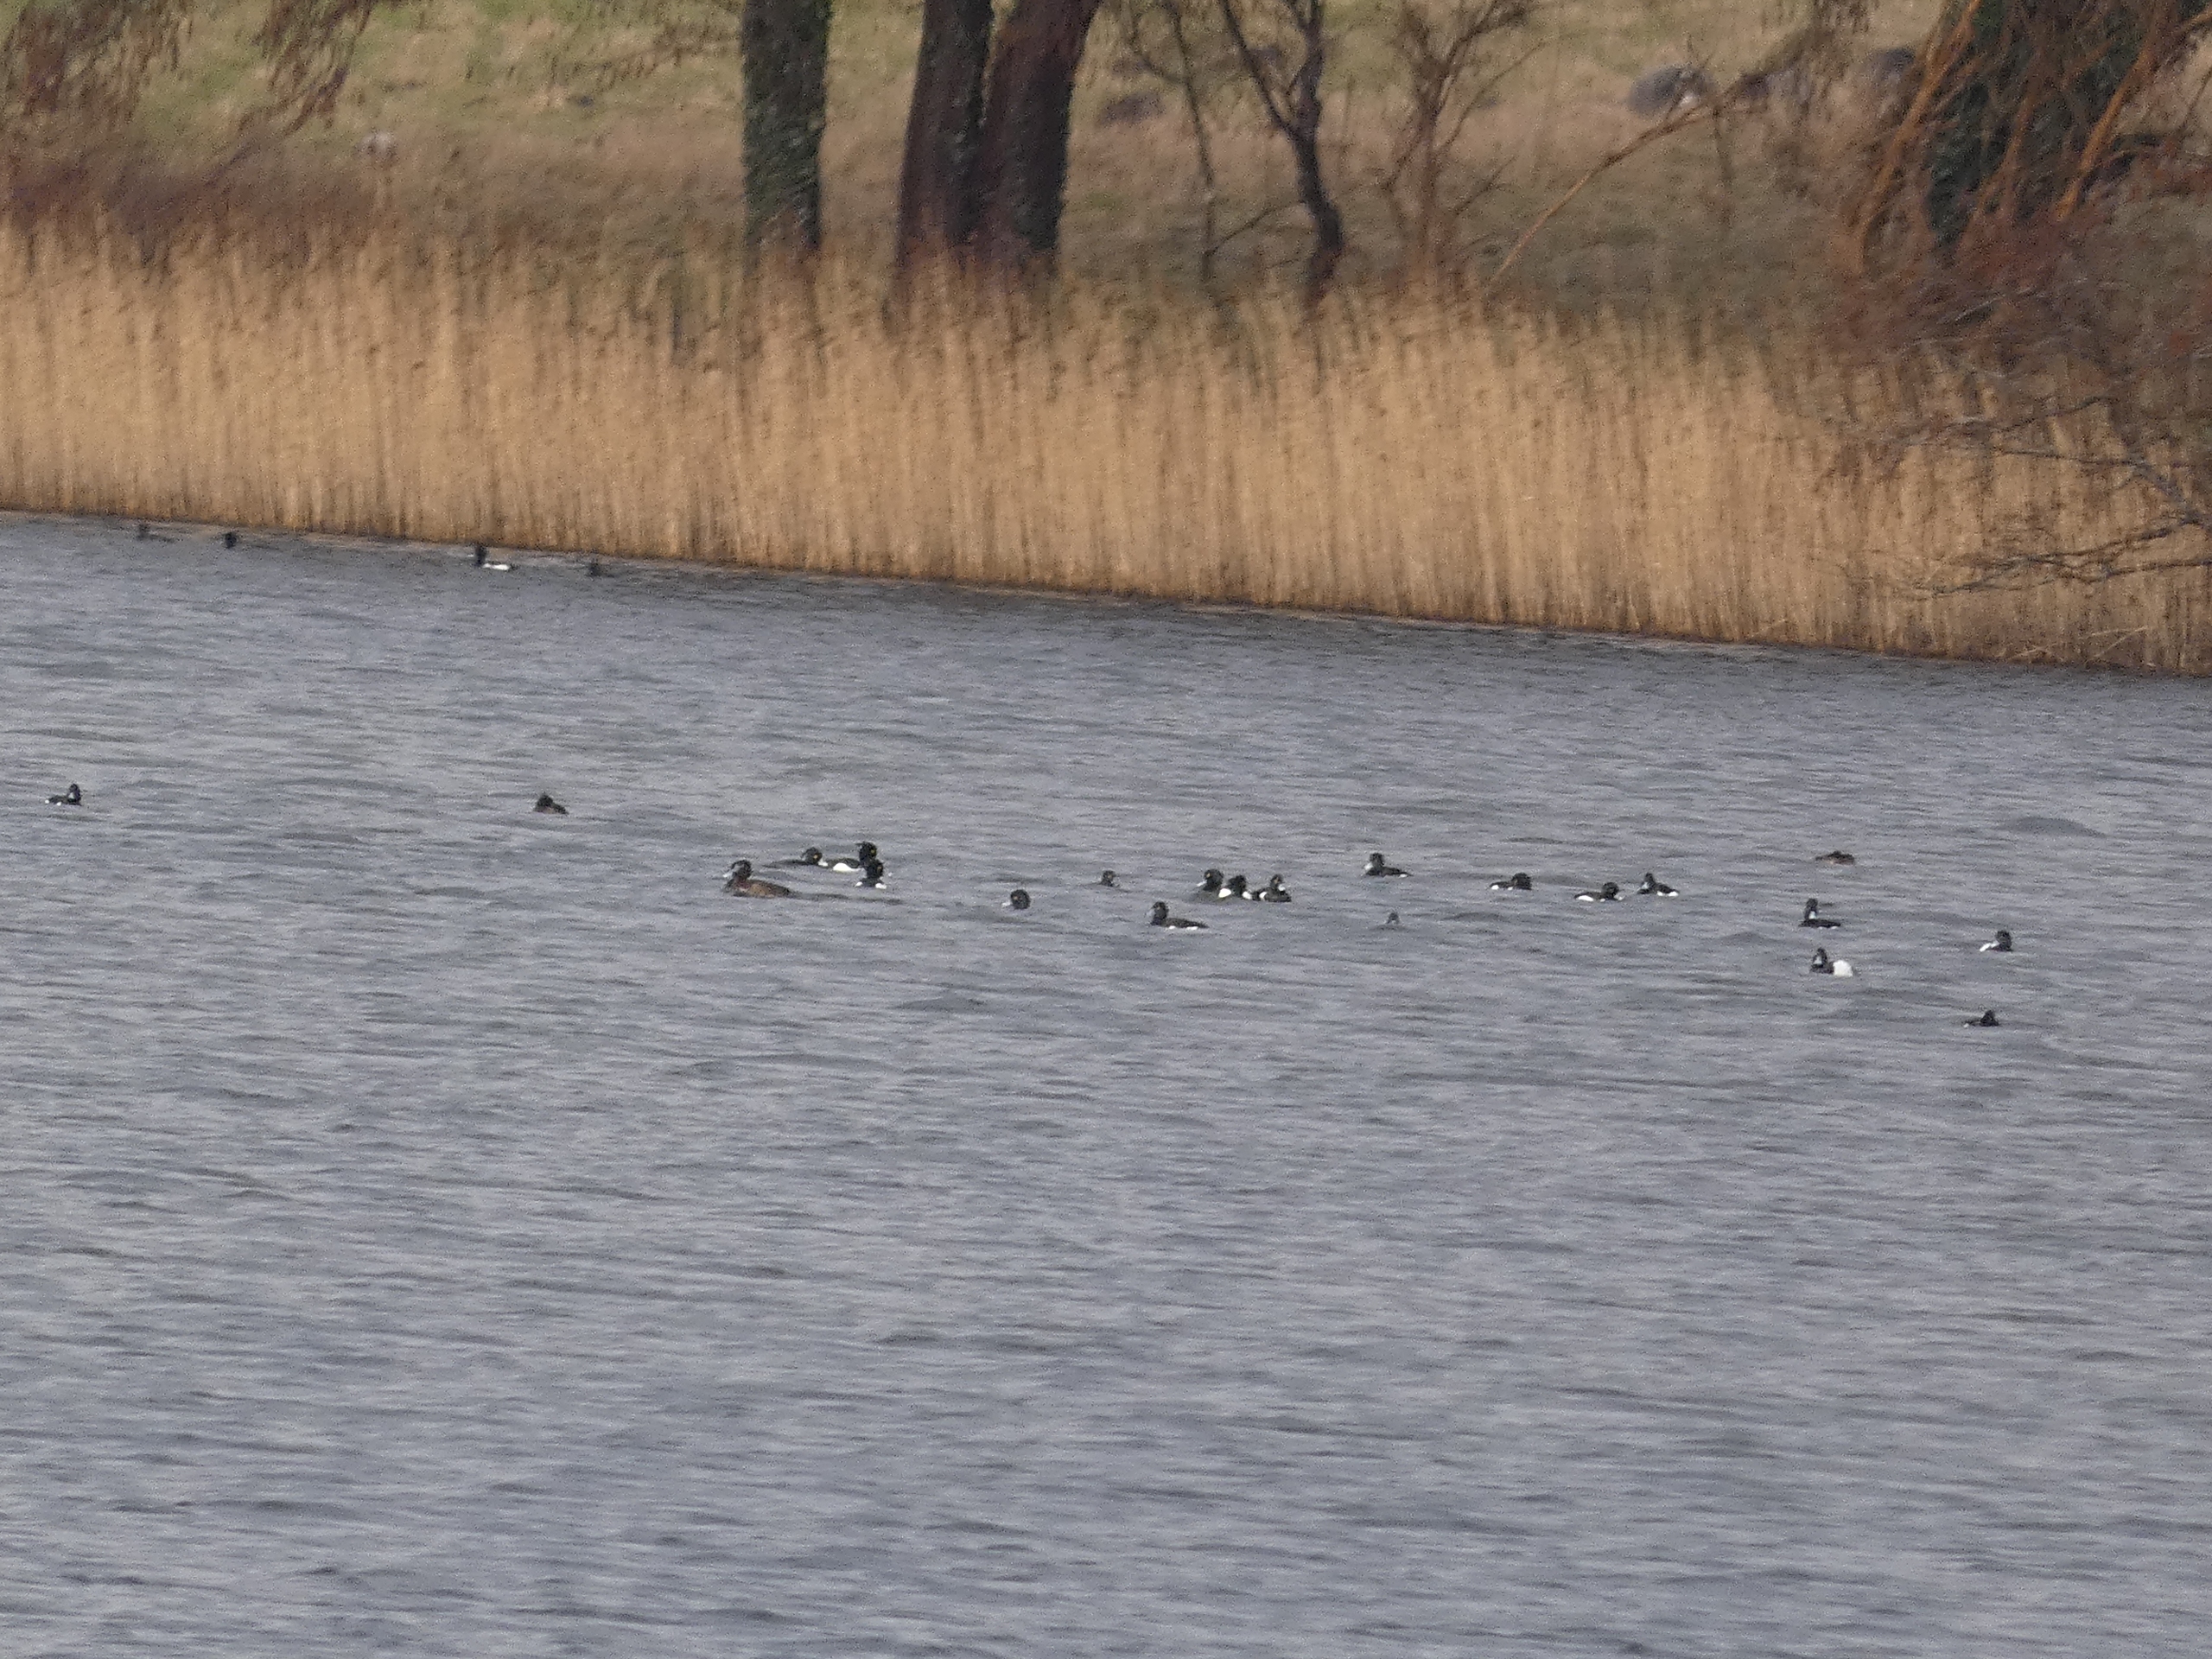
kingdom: Animalia
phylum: Chordata
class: Aves
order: Anseriformes
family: Anatidae
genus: Aythya
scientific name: Aythya fuligula
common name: Troldand
